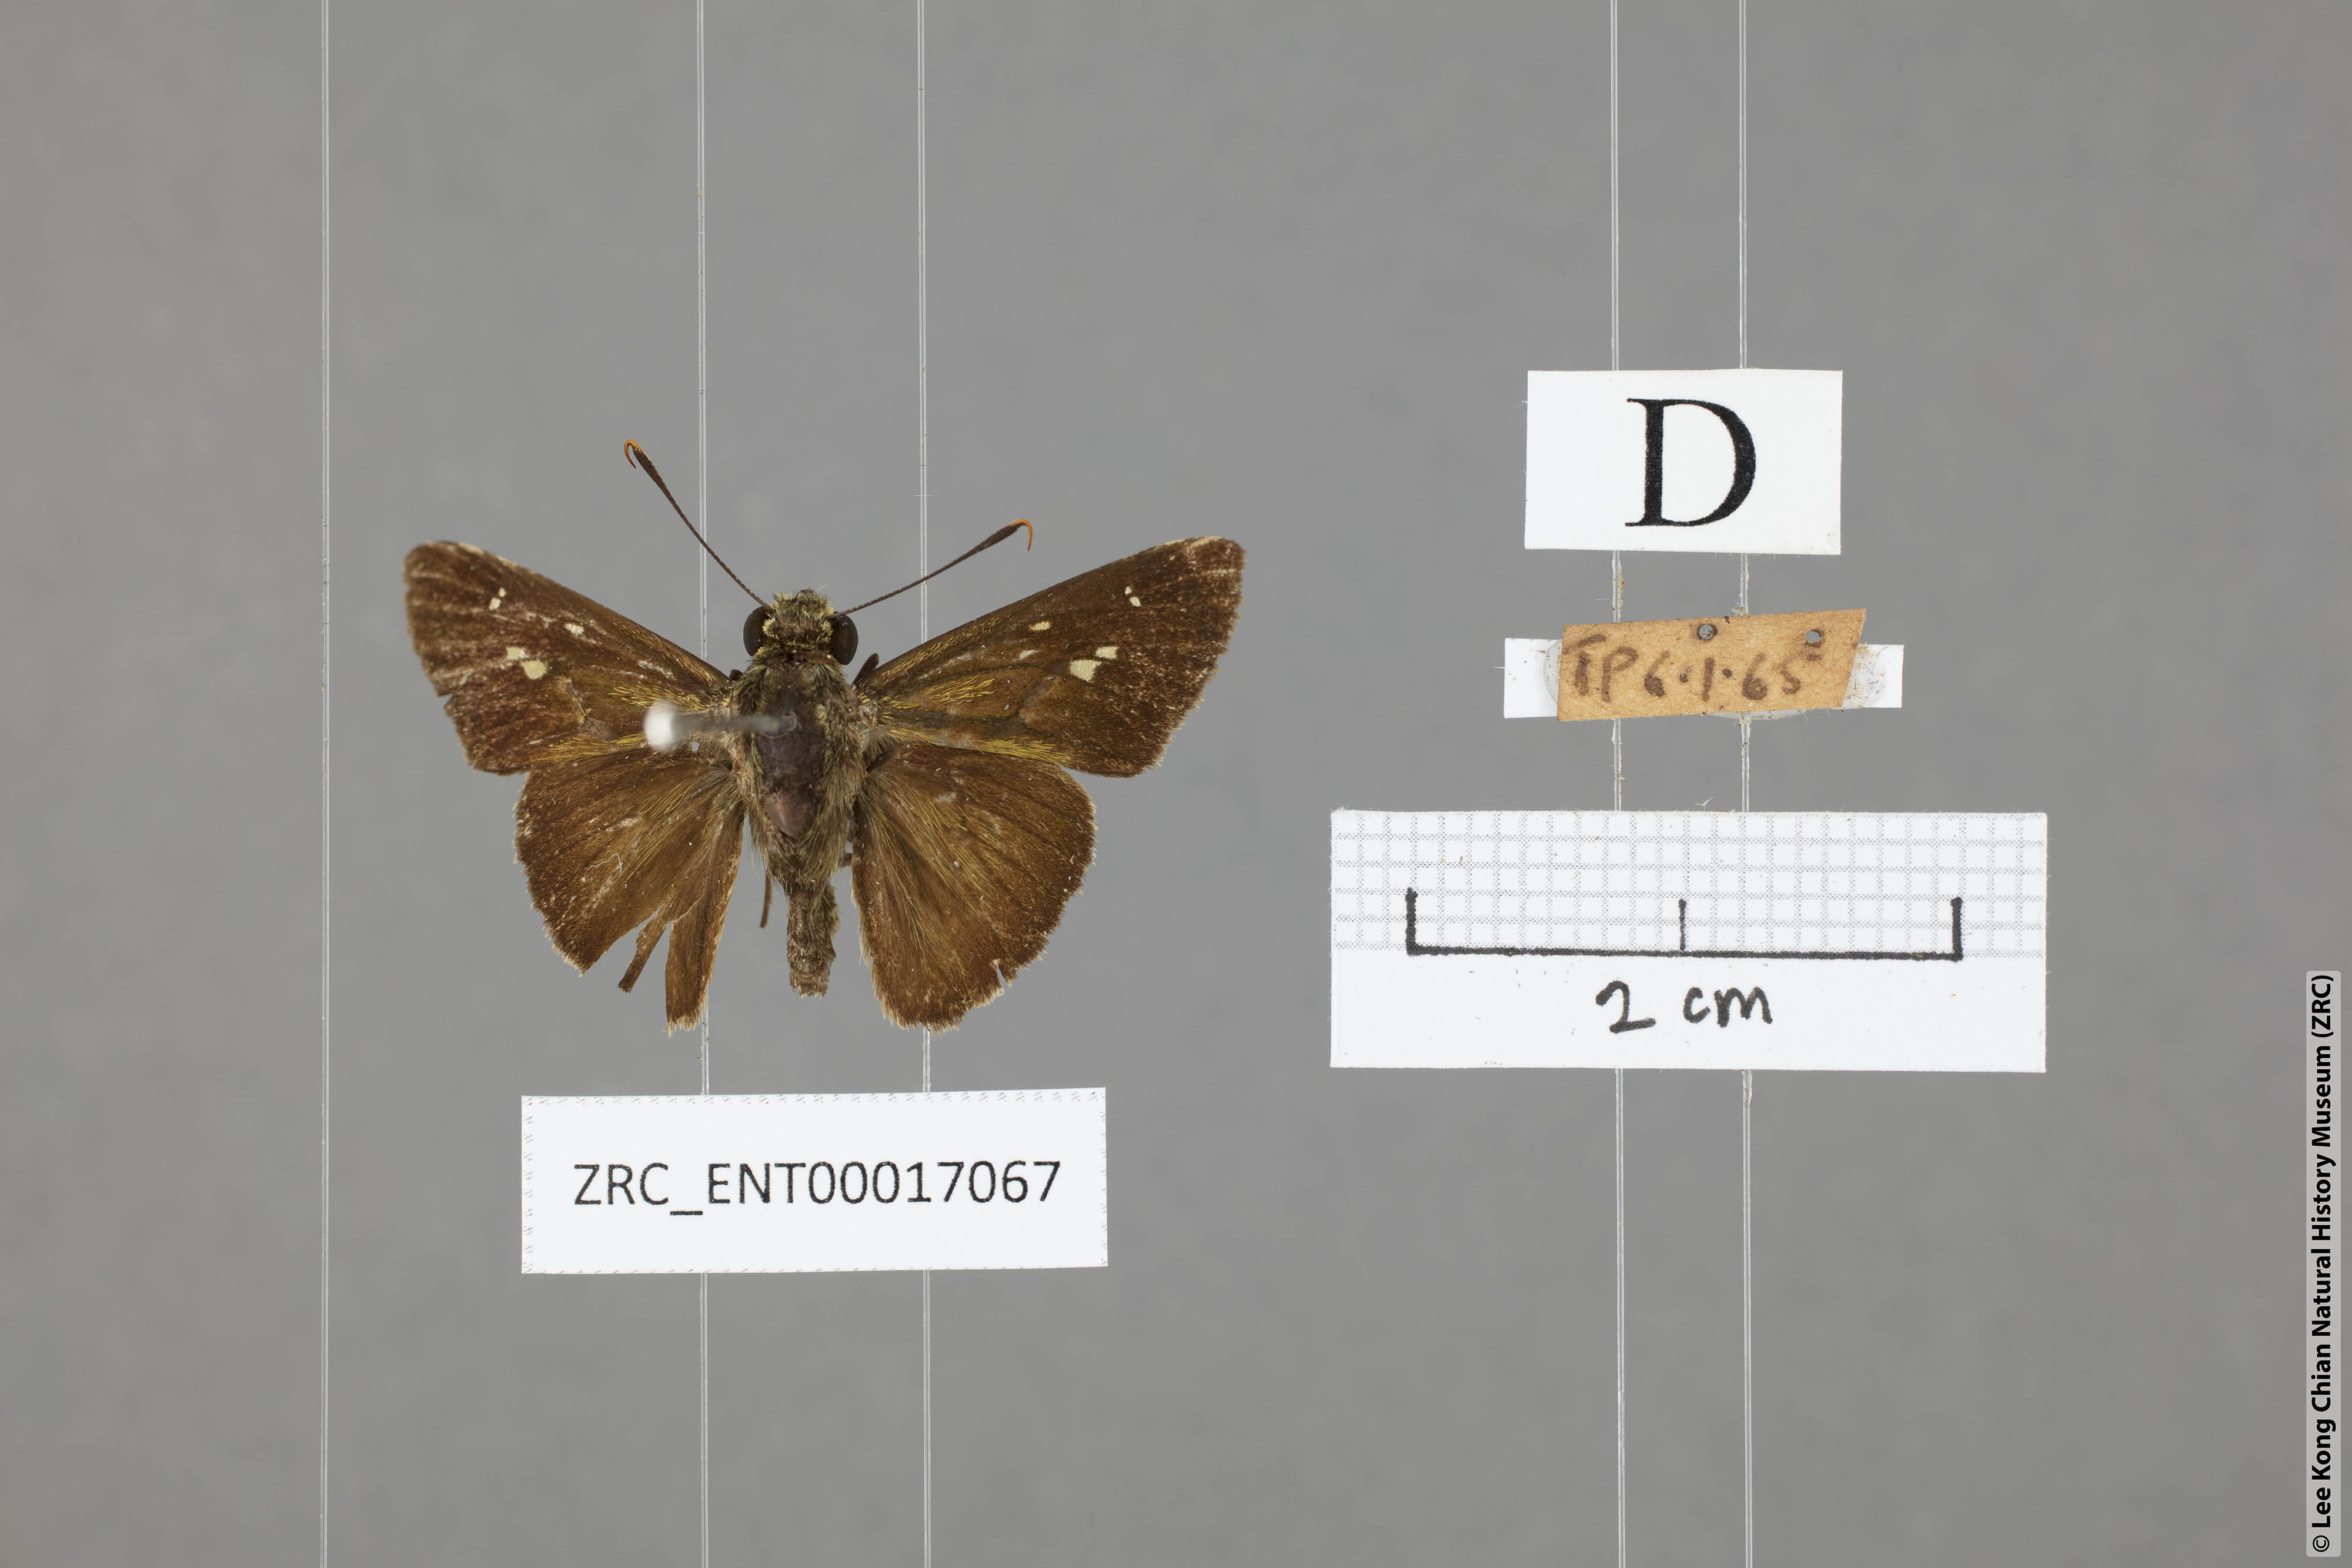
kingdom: Animalia
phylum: Arthropoda
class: Insecta
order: Lepidoptera
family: Hesperiidae
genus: Halpe
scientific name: Halpe sikkima
